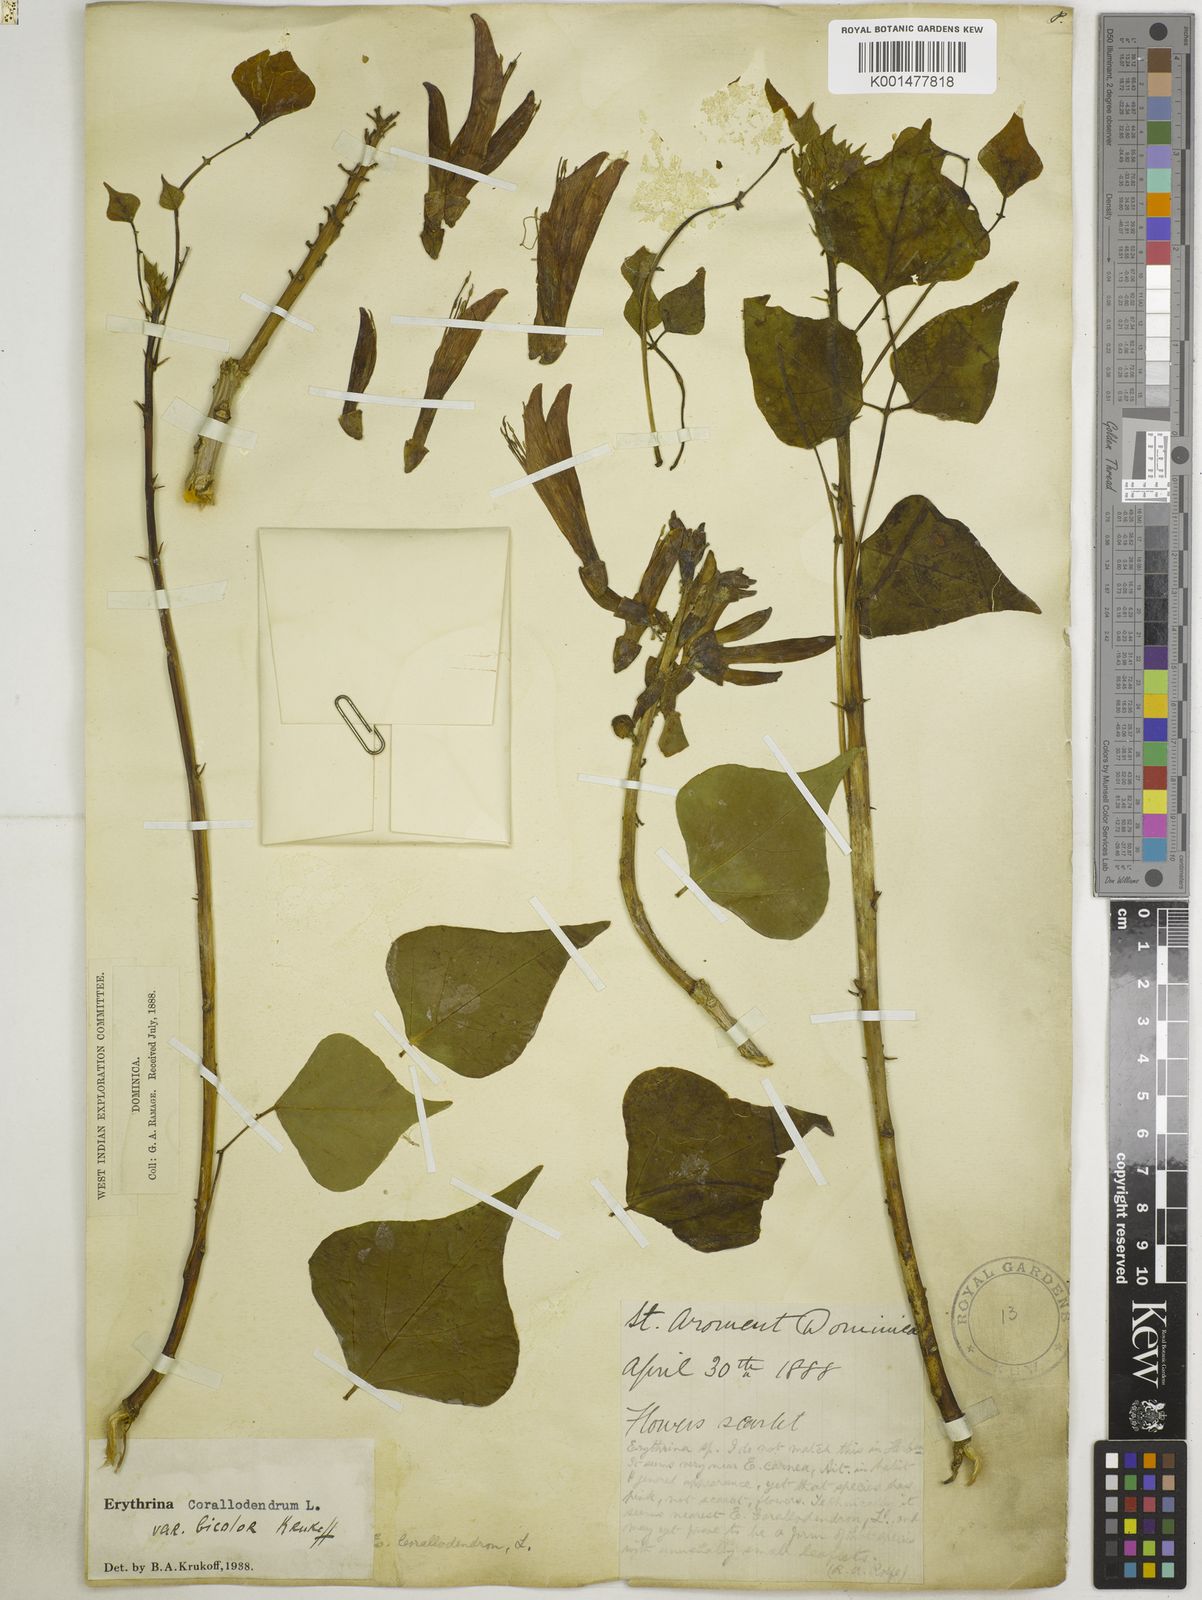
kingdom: Plantae
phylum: Tracheophyta
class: Magnoliopsida
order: Fabales
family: Fabaceae
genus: Erythrina
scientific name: Erythrina corallodendron
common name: Coraltree
